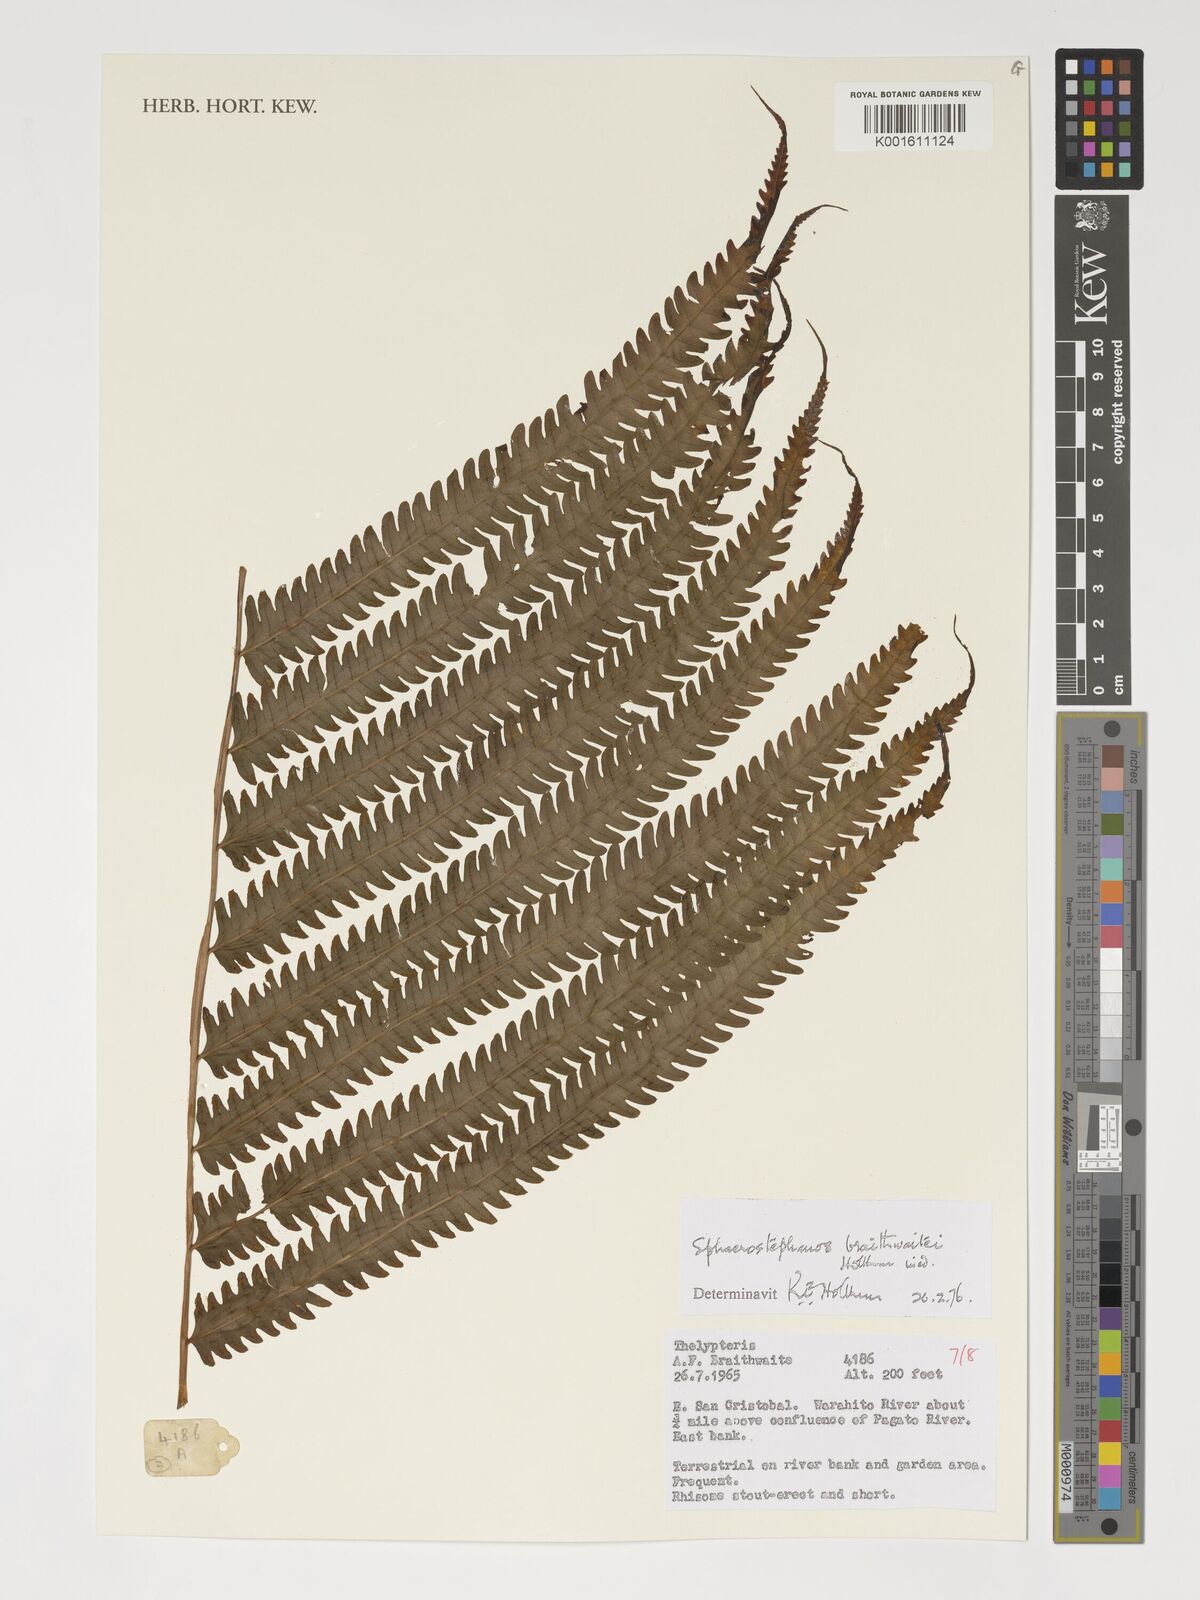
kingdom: Plantae
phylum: Tracheophyta
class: Polypodiopsida
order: Polypodiales
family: Thelypteridaceae
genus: Sphaerostephanos
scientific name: Sphaerostephanos braithwaitei
